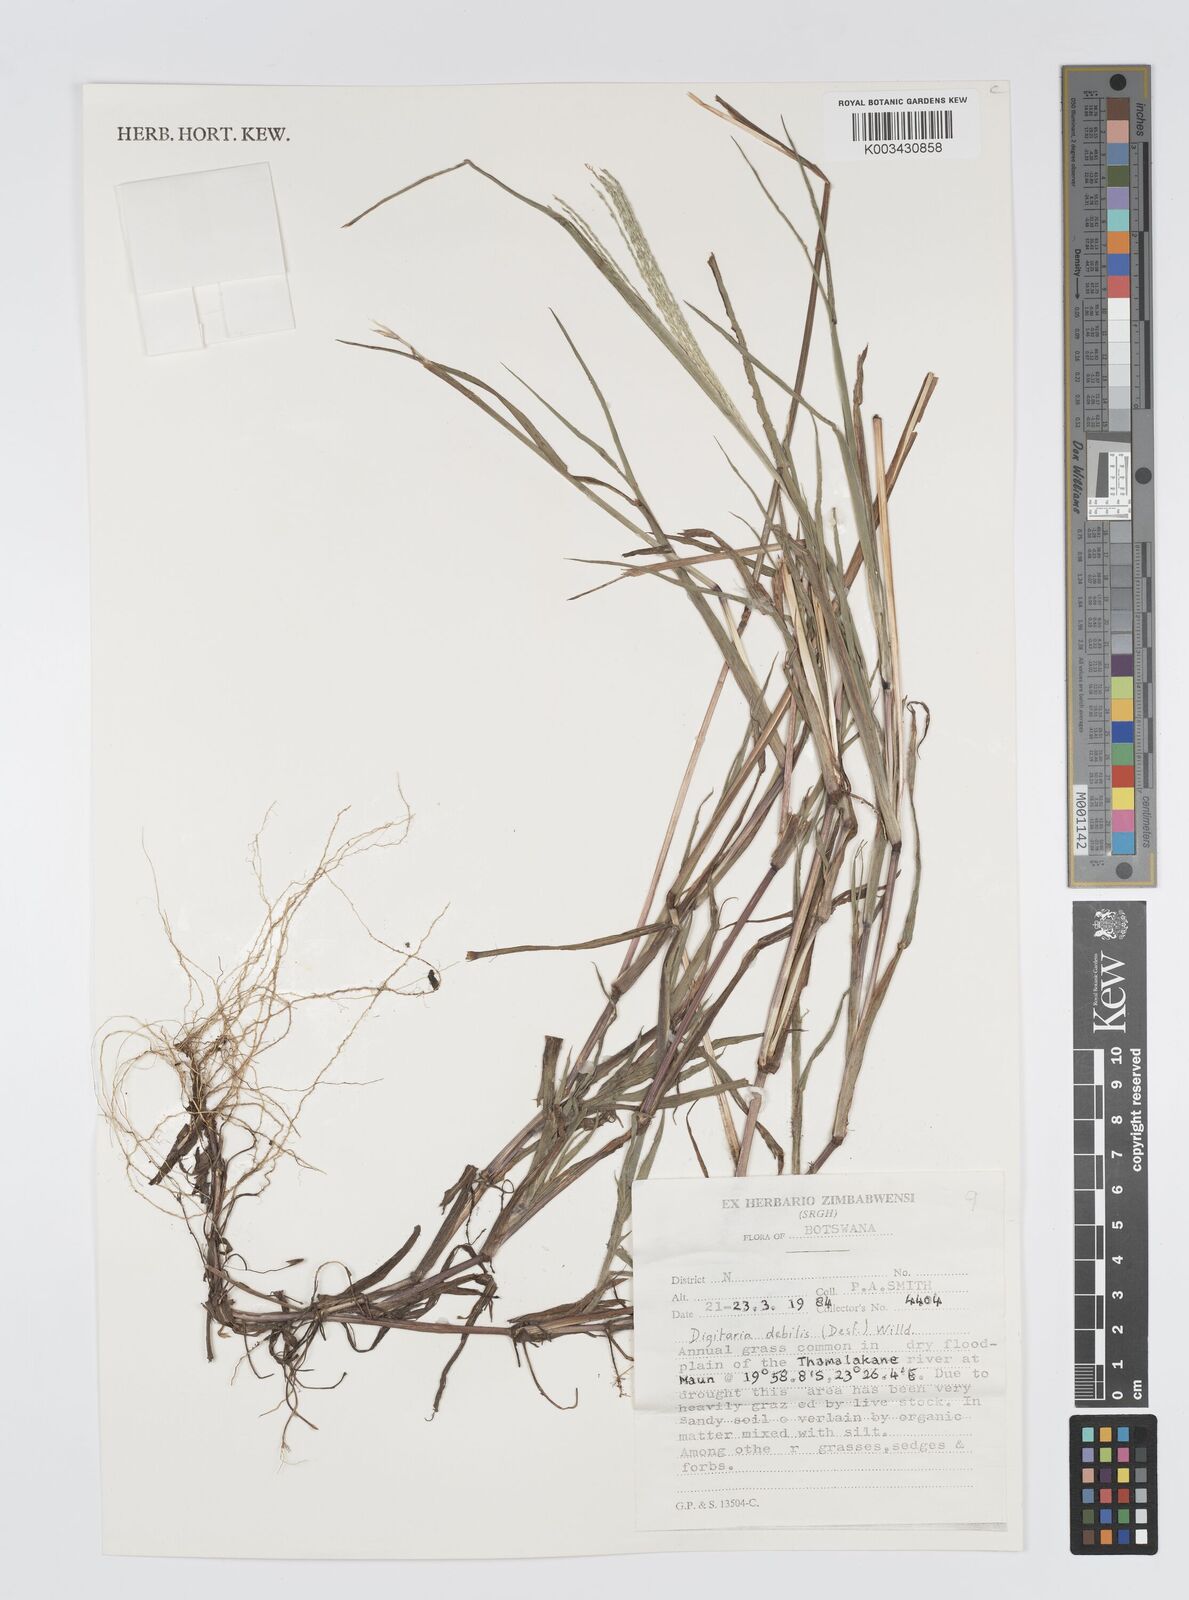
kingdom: Plantae
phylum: Tracheophyta
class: Liliopsida
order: Poales
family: Poaceae
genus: Digitaria
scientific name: Digitaria debilis
